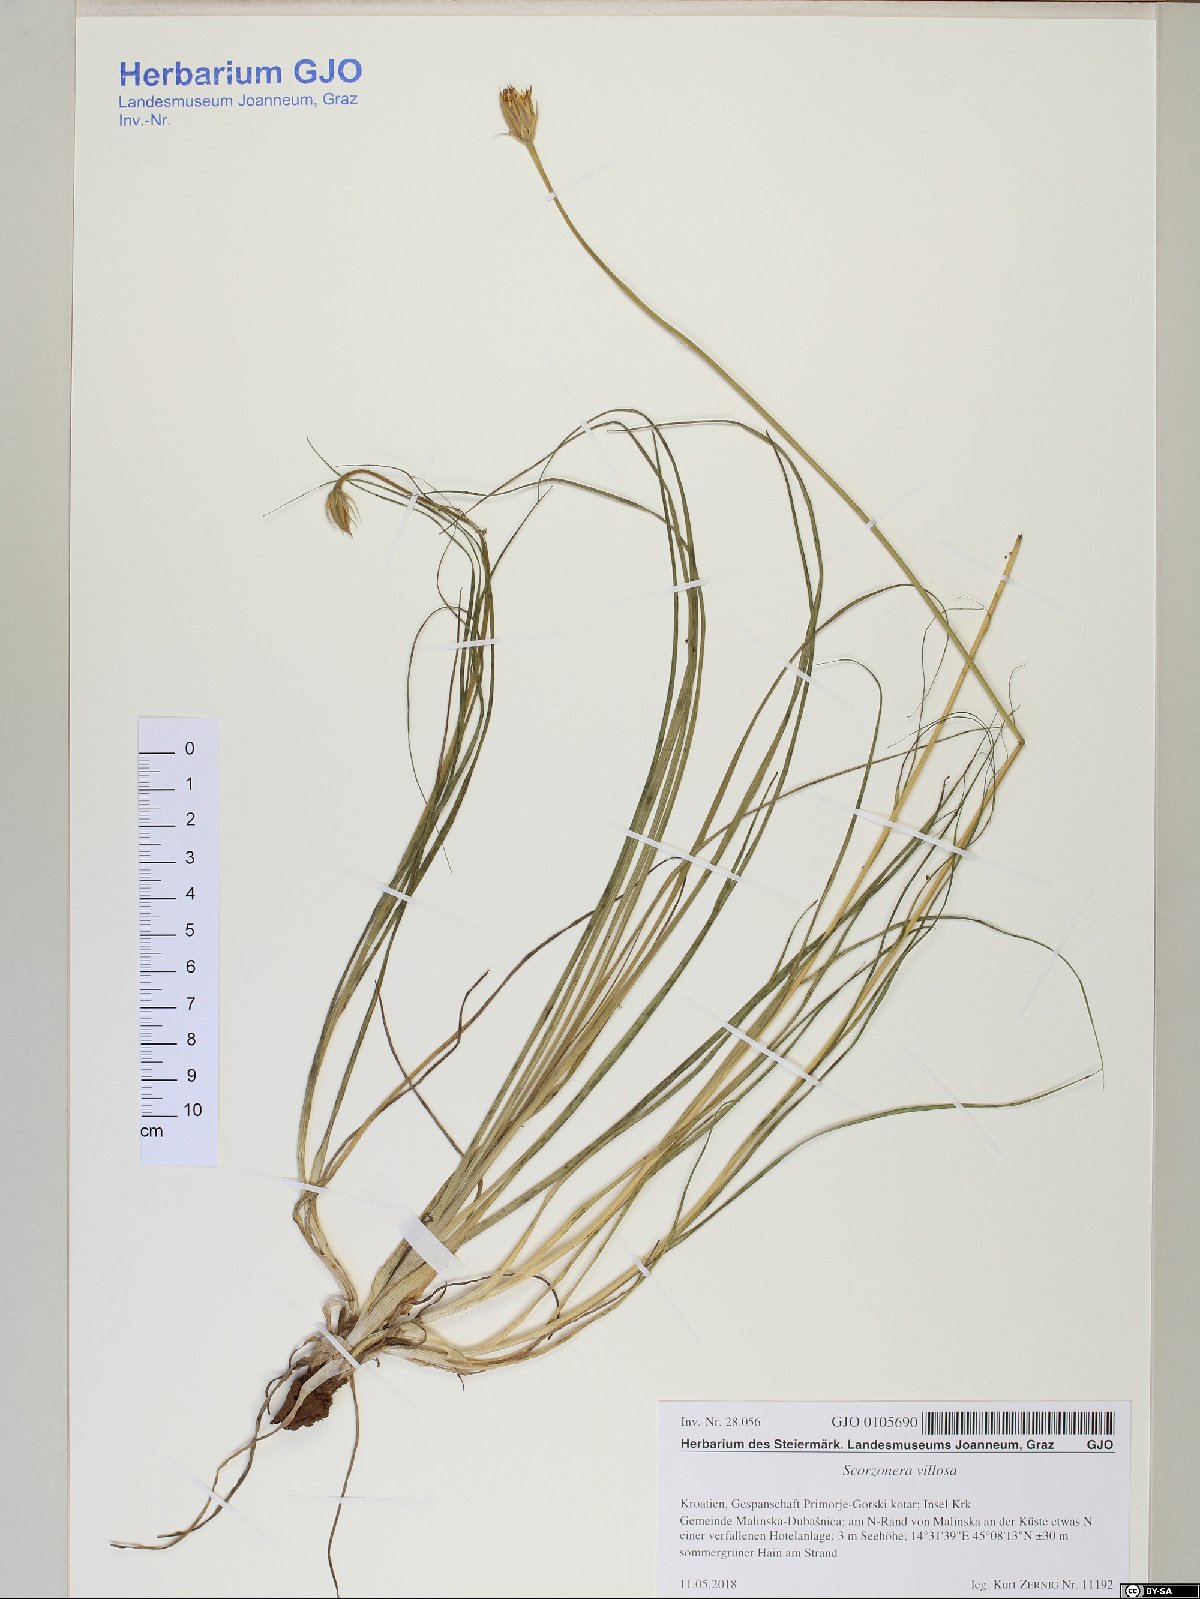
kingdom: Plantae
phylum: Tracheophyta
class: Magnoliopsida
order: Asterales
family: Asteraceae
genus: Gelasia
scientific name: Gelasia villosa
